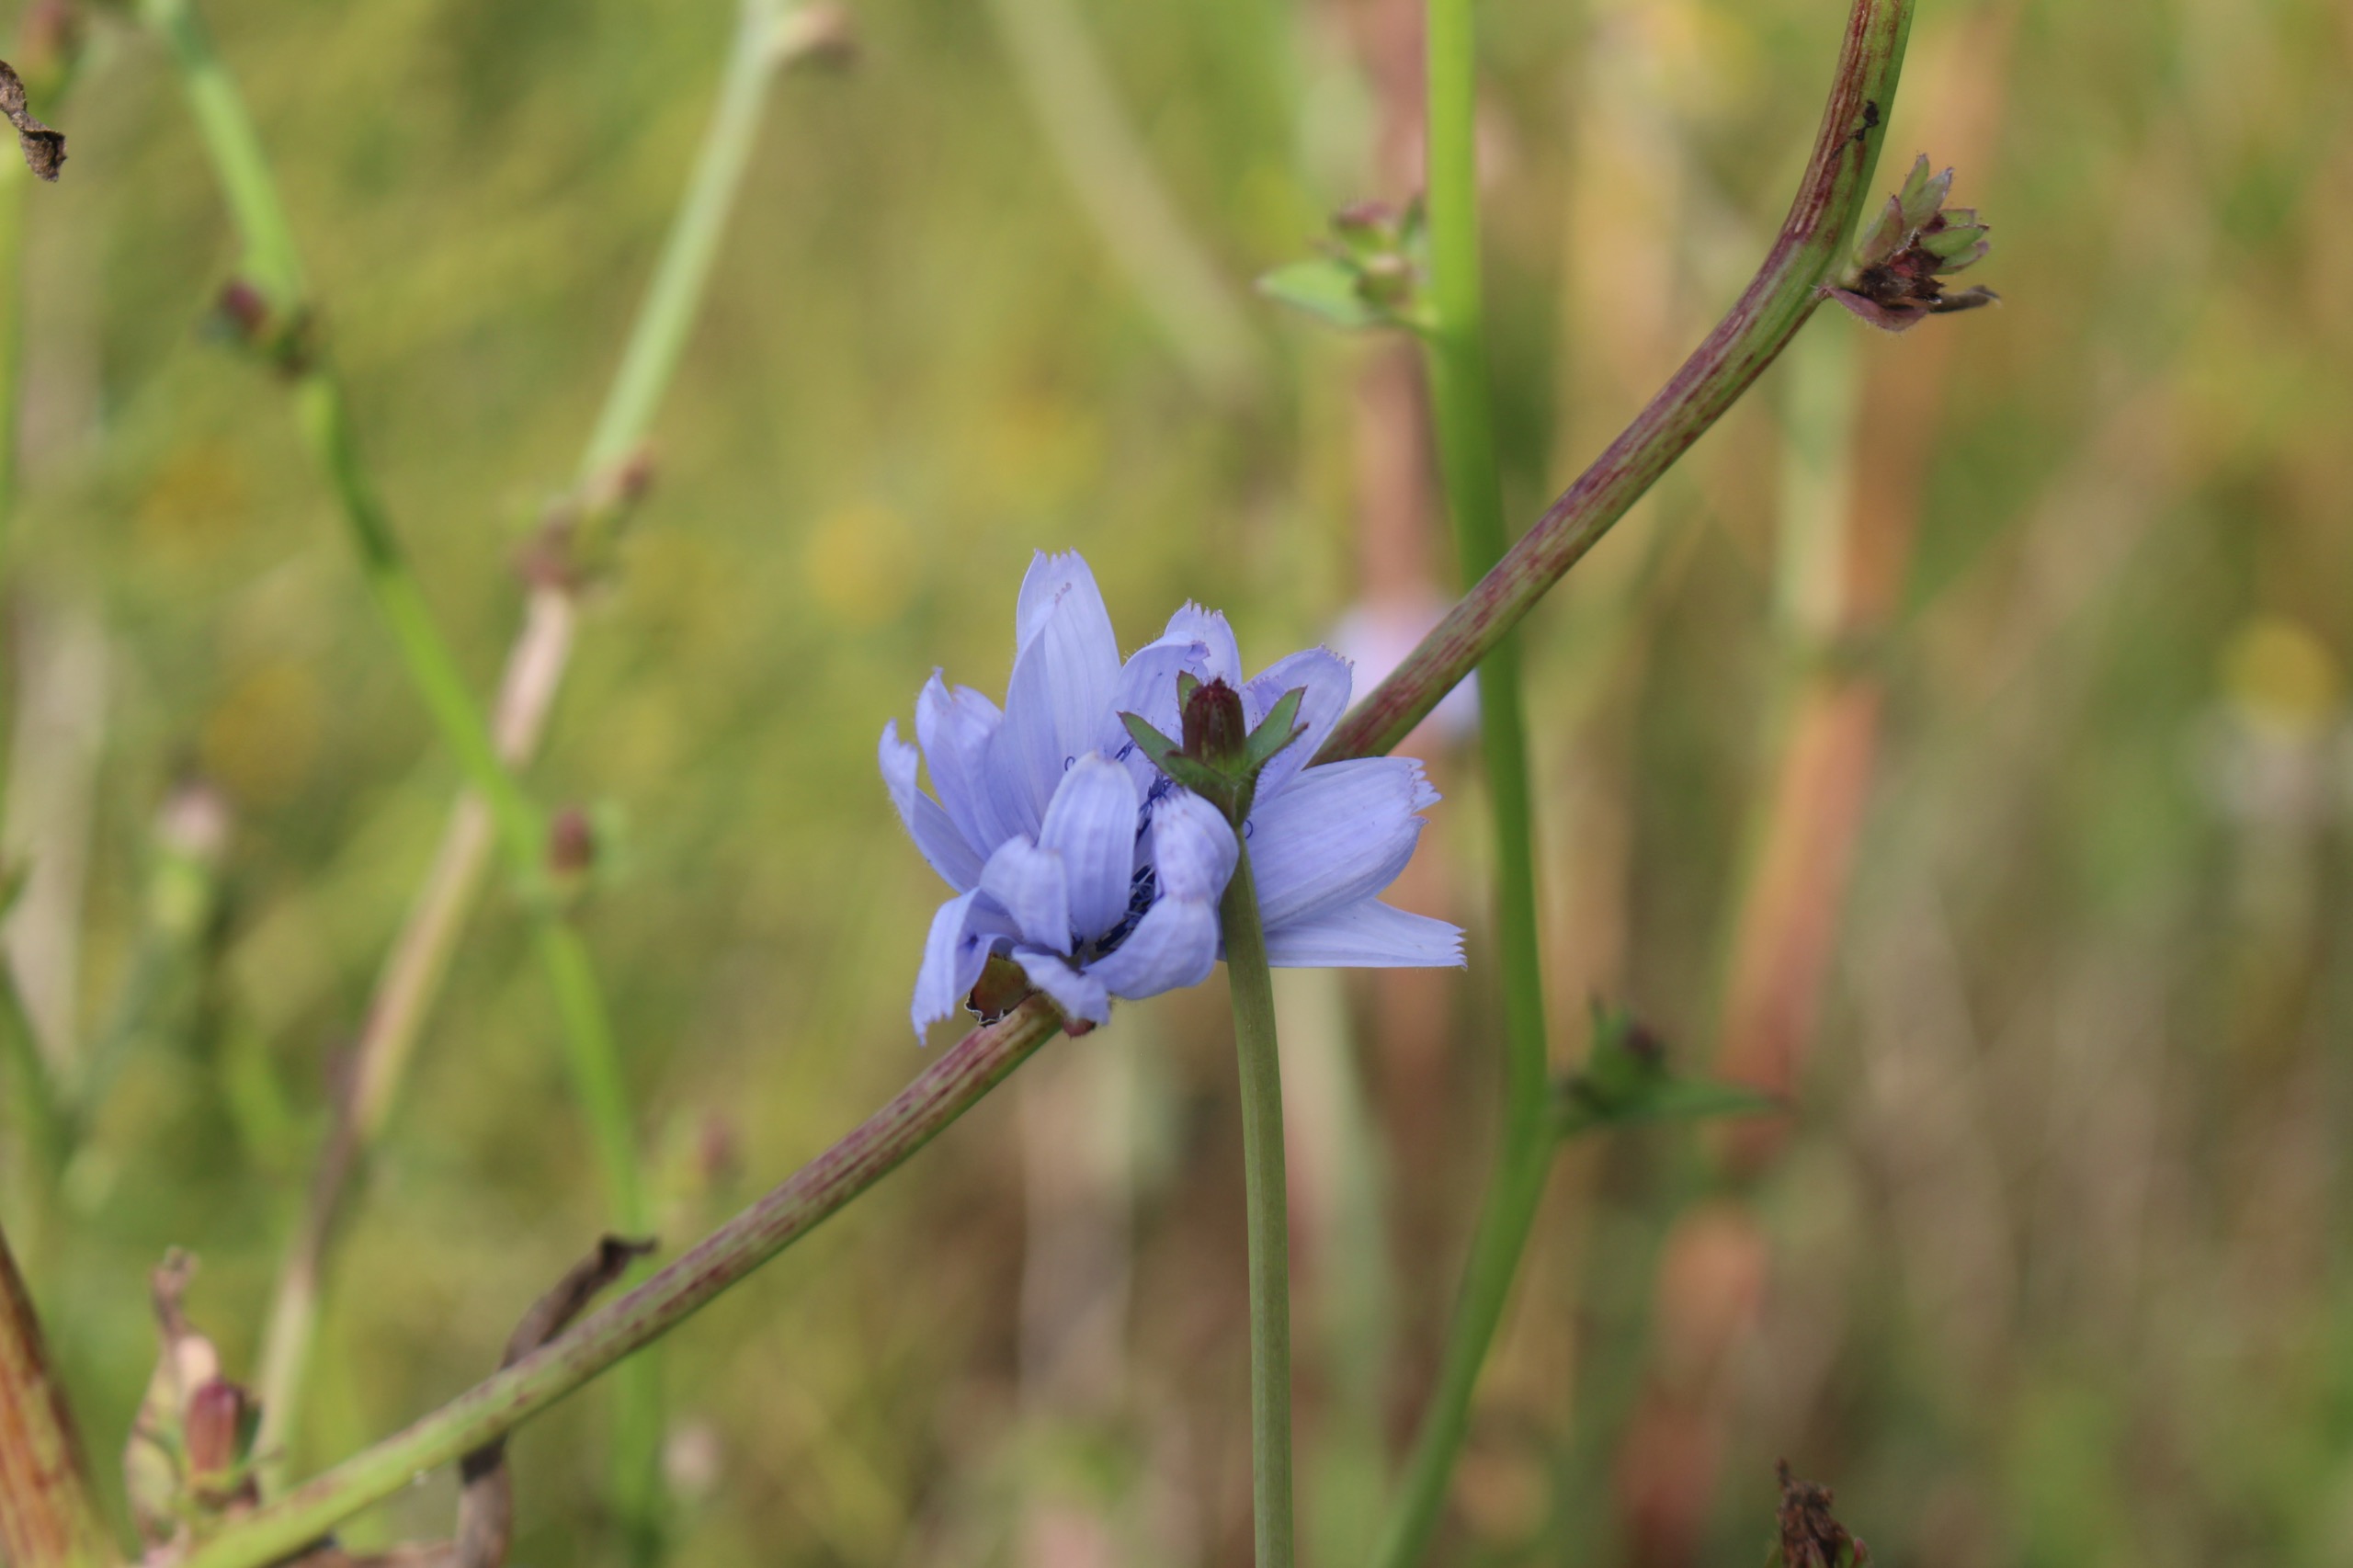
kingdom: Plantae
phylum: Tracheophyta
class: Magnoliopsida
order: Asterales
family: Asteraceae
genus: Cichorium
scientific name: Cichorium intybus
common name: Cikorie
